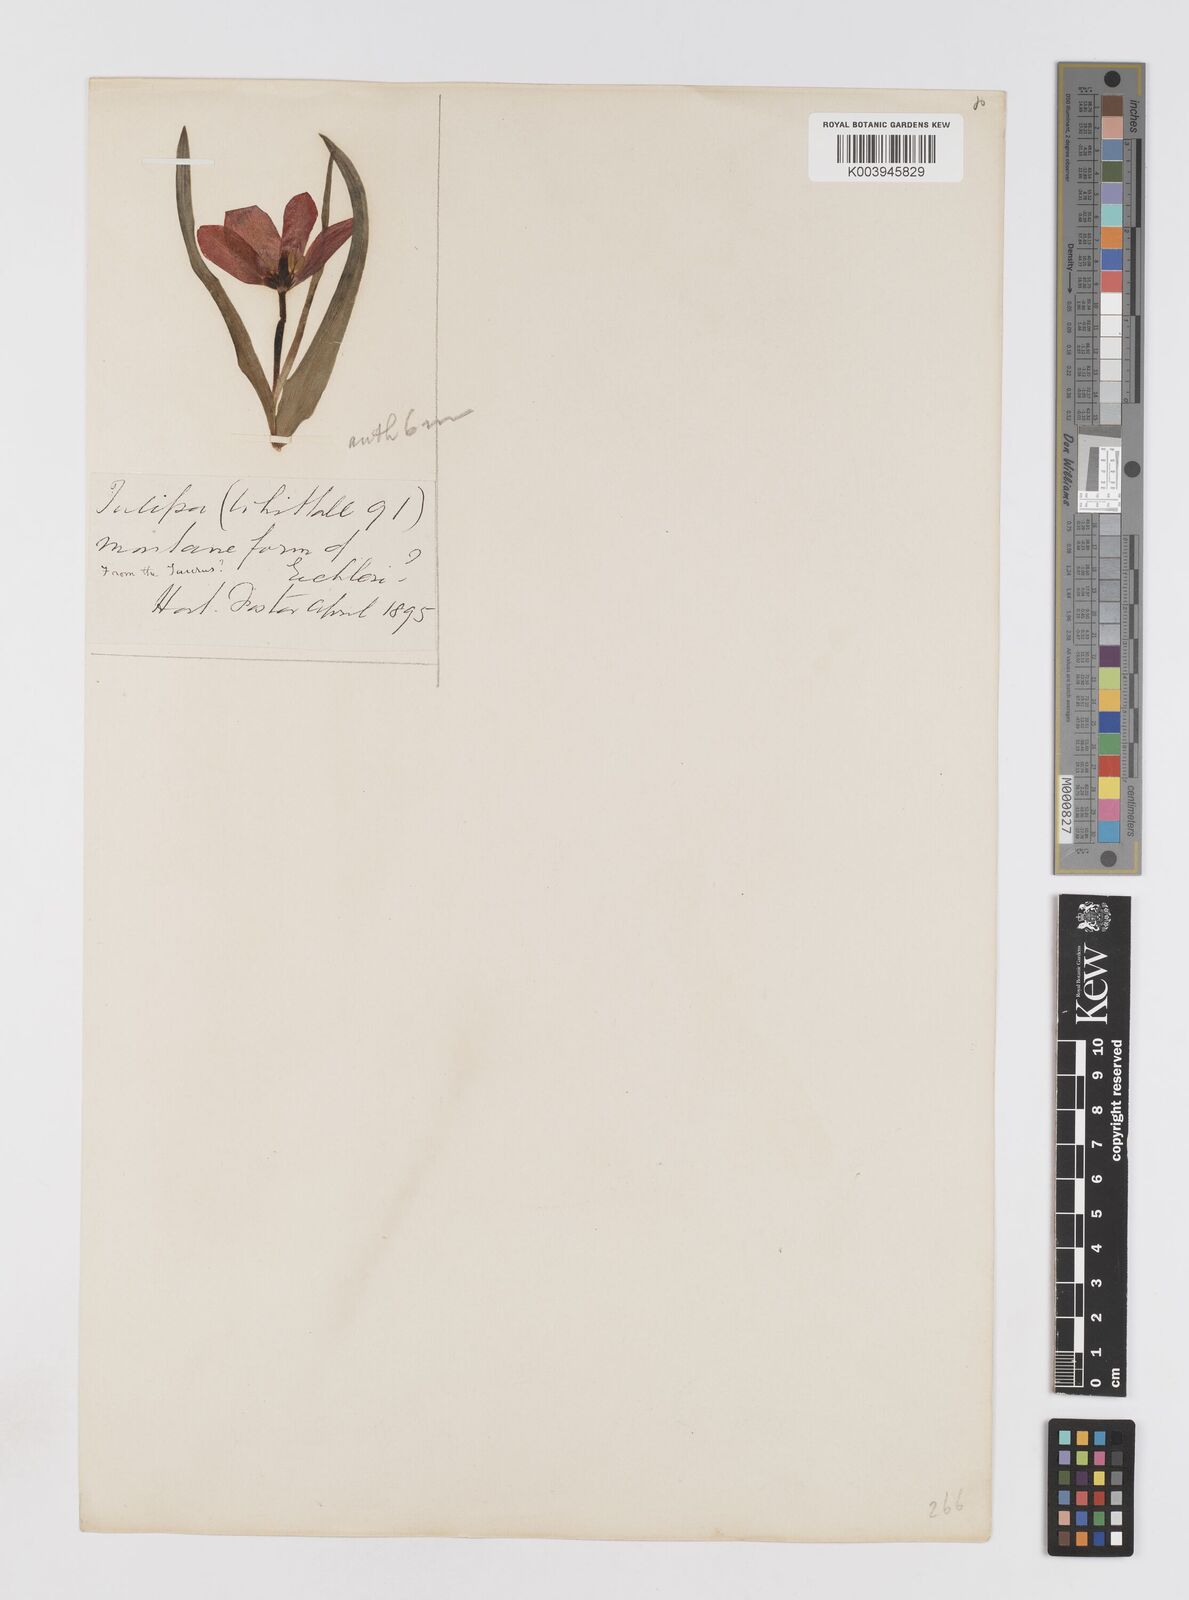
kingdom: Plantae
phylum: Tracheophyta
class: Liliopsida
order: Liliales
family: Liliaceae
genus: Tulipa
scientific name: Tulipa agenensis
